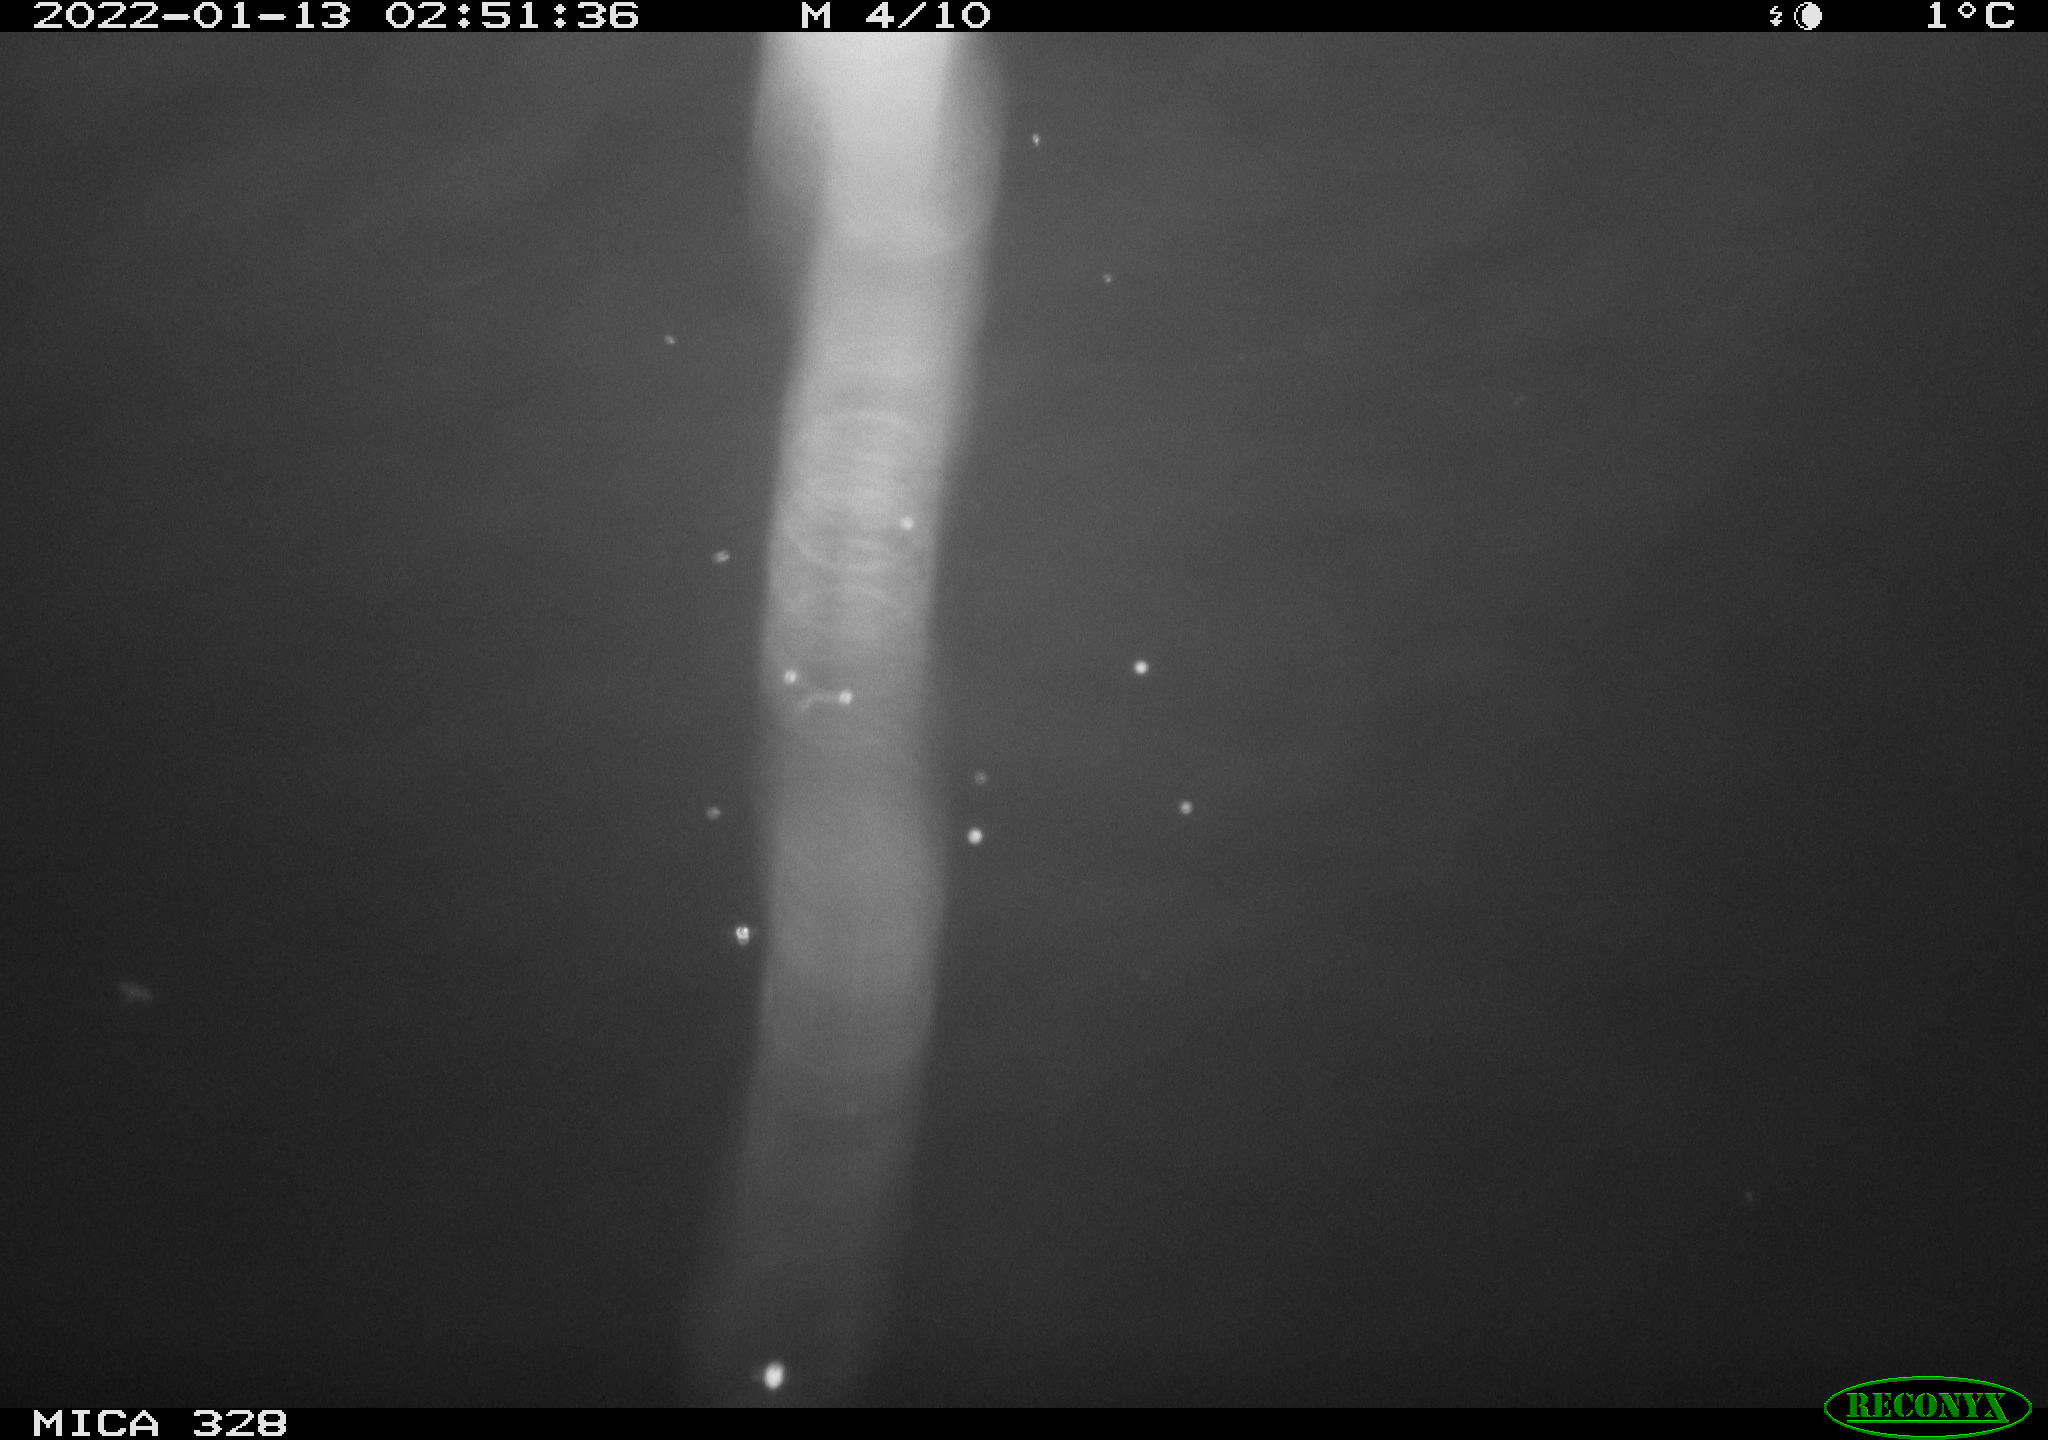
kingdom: Animalia
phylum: Chordata
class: Mammalia
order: Rodentia
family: Cricetidae
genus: Ondatra
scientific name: Ondatra zibethicus
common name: Muskrat
